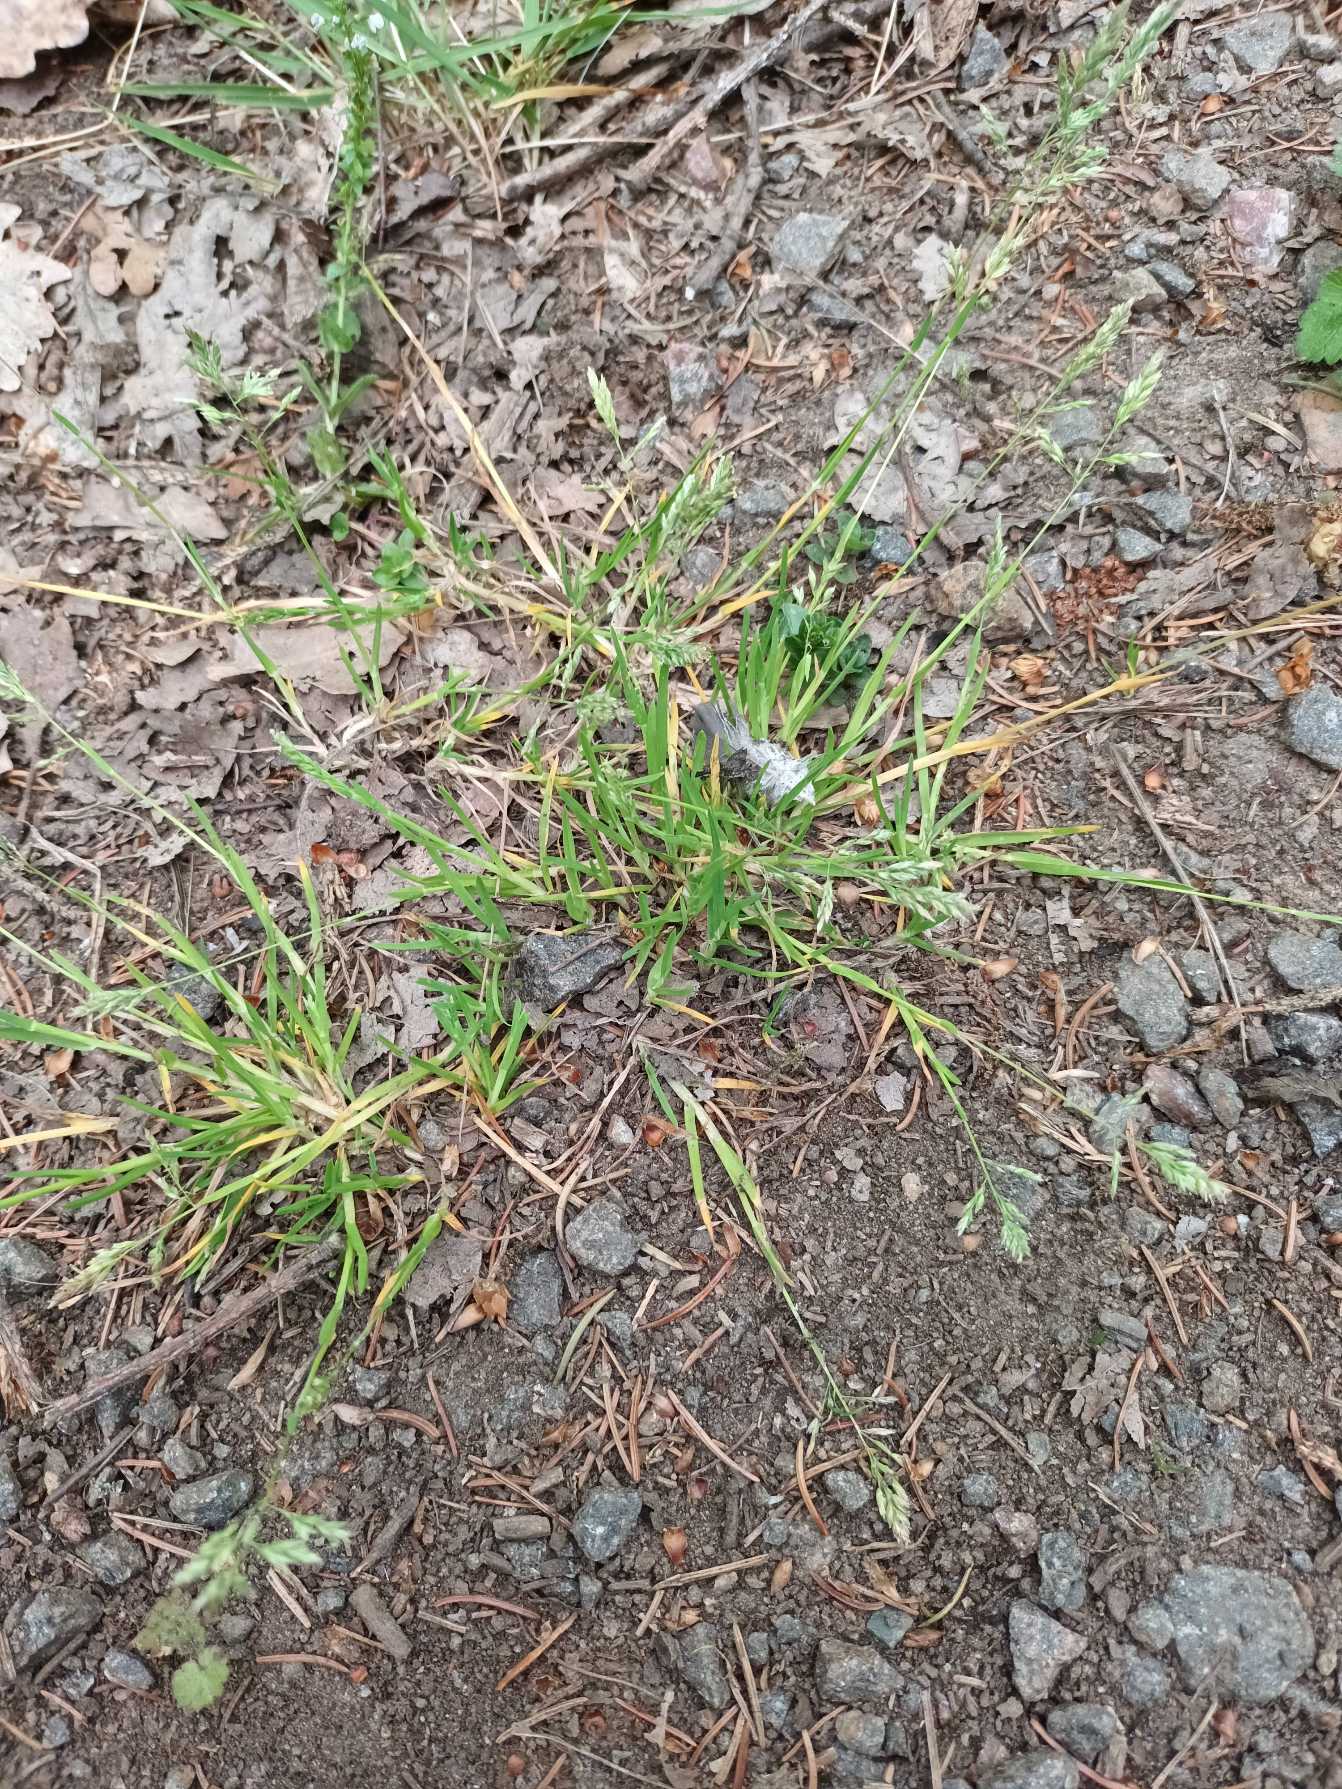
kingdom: Plantae
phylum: Tracheophyta
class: Liliopsida
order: Poales
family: Poaceae
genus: Poa
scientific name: Poa annua
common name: Enårig rapgræs
